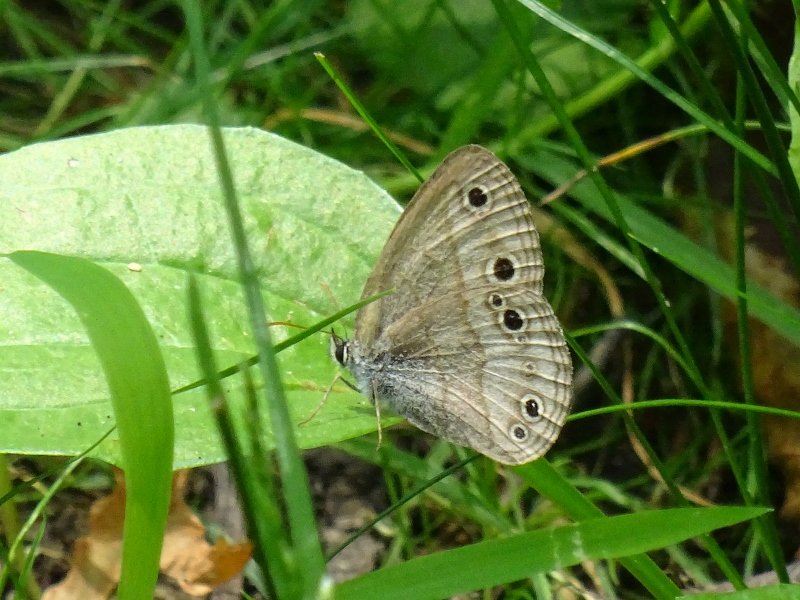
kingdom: Animalia
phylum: Arthropoda
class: Insecta
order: Lepidoptera
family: Nymphalidae
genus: Euptychia
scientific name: Euptychia cymela
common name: Little Wood Satyr
